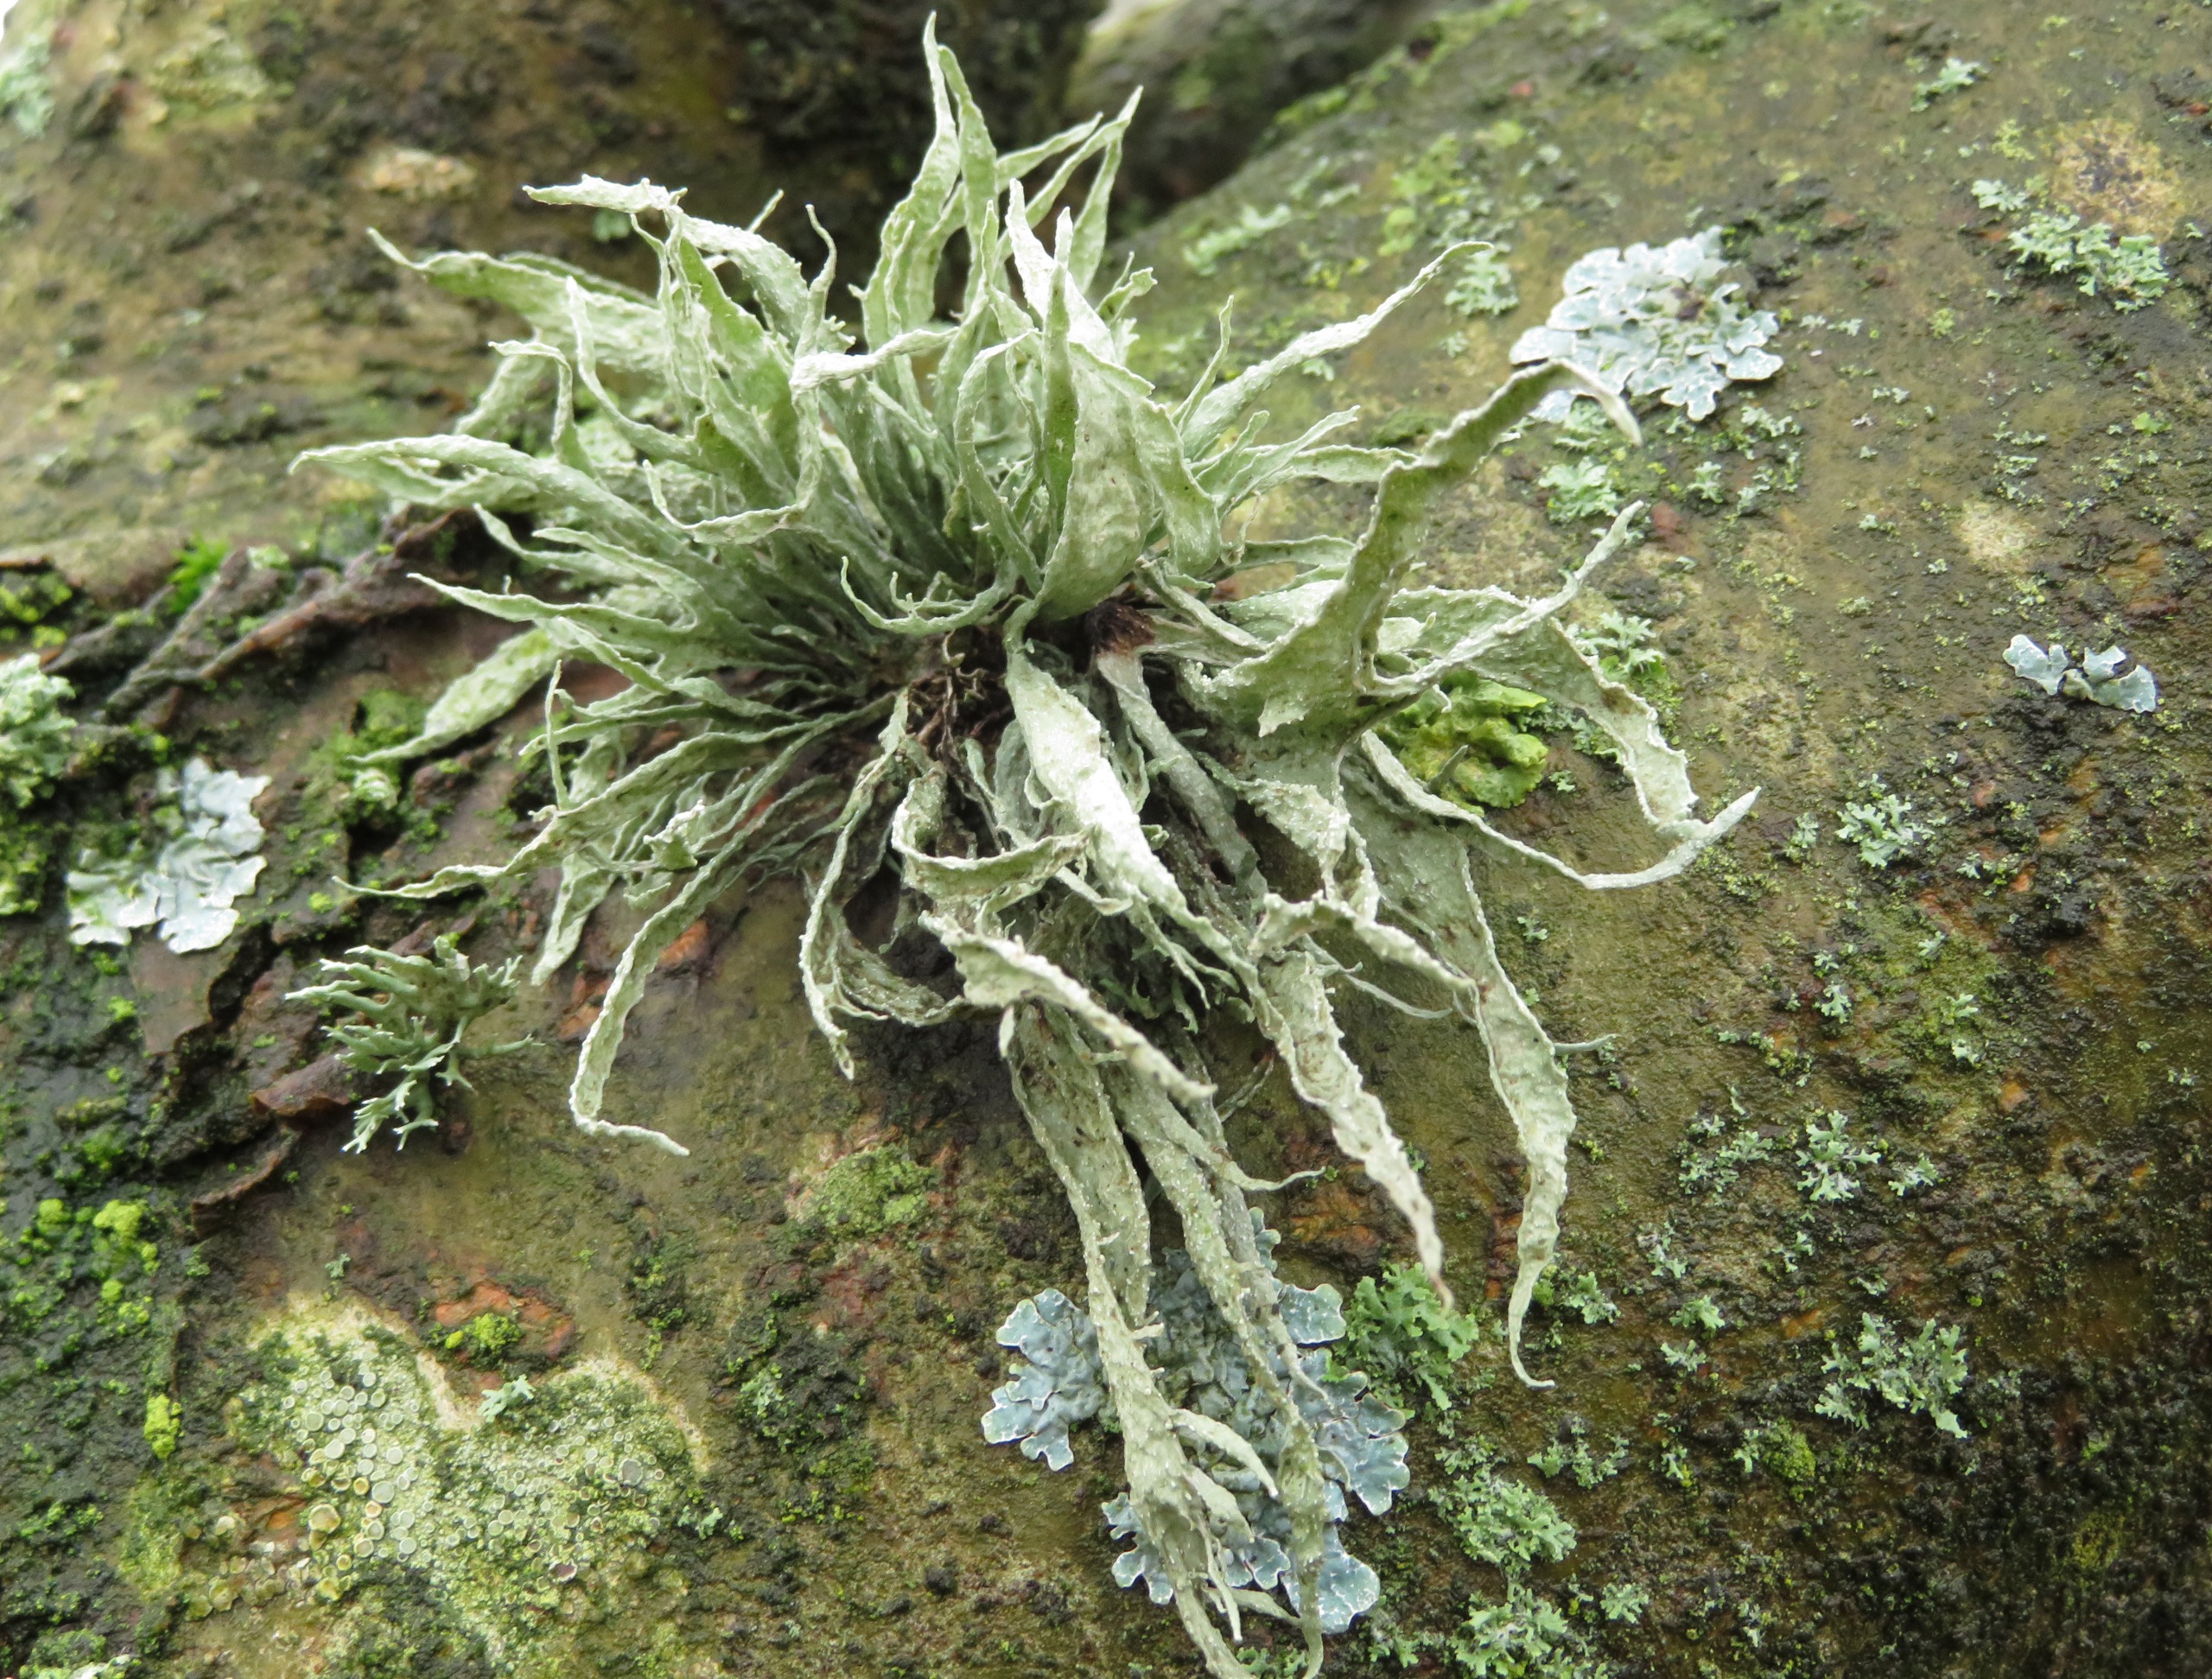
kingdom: Fungi
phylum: Ascomycota
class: Lecanoromycetes
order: Lecanorales
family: Ramalinaceae
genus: Ramalina
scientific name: Ramalina fraxinea
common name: Stor grenlav
